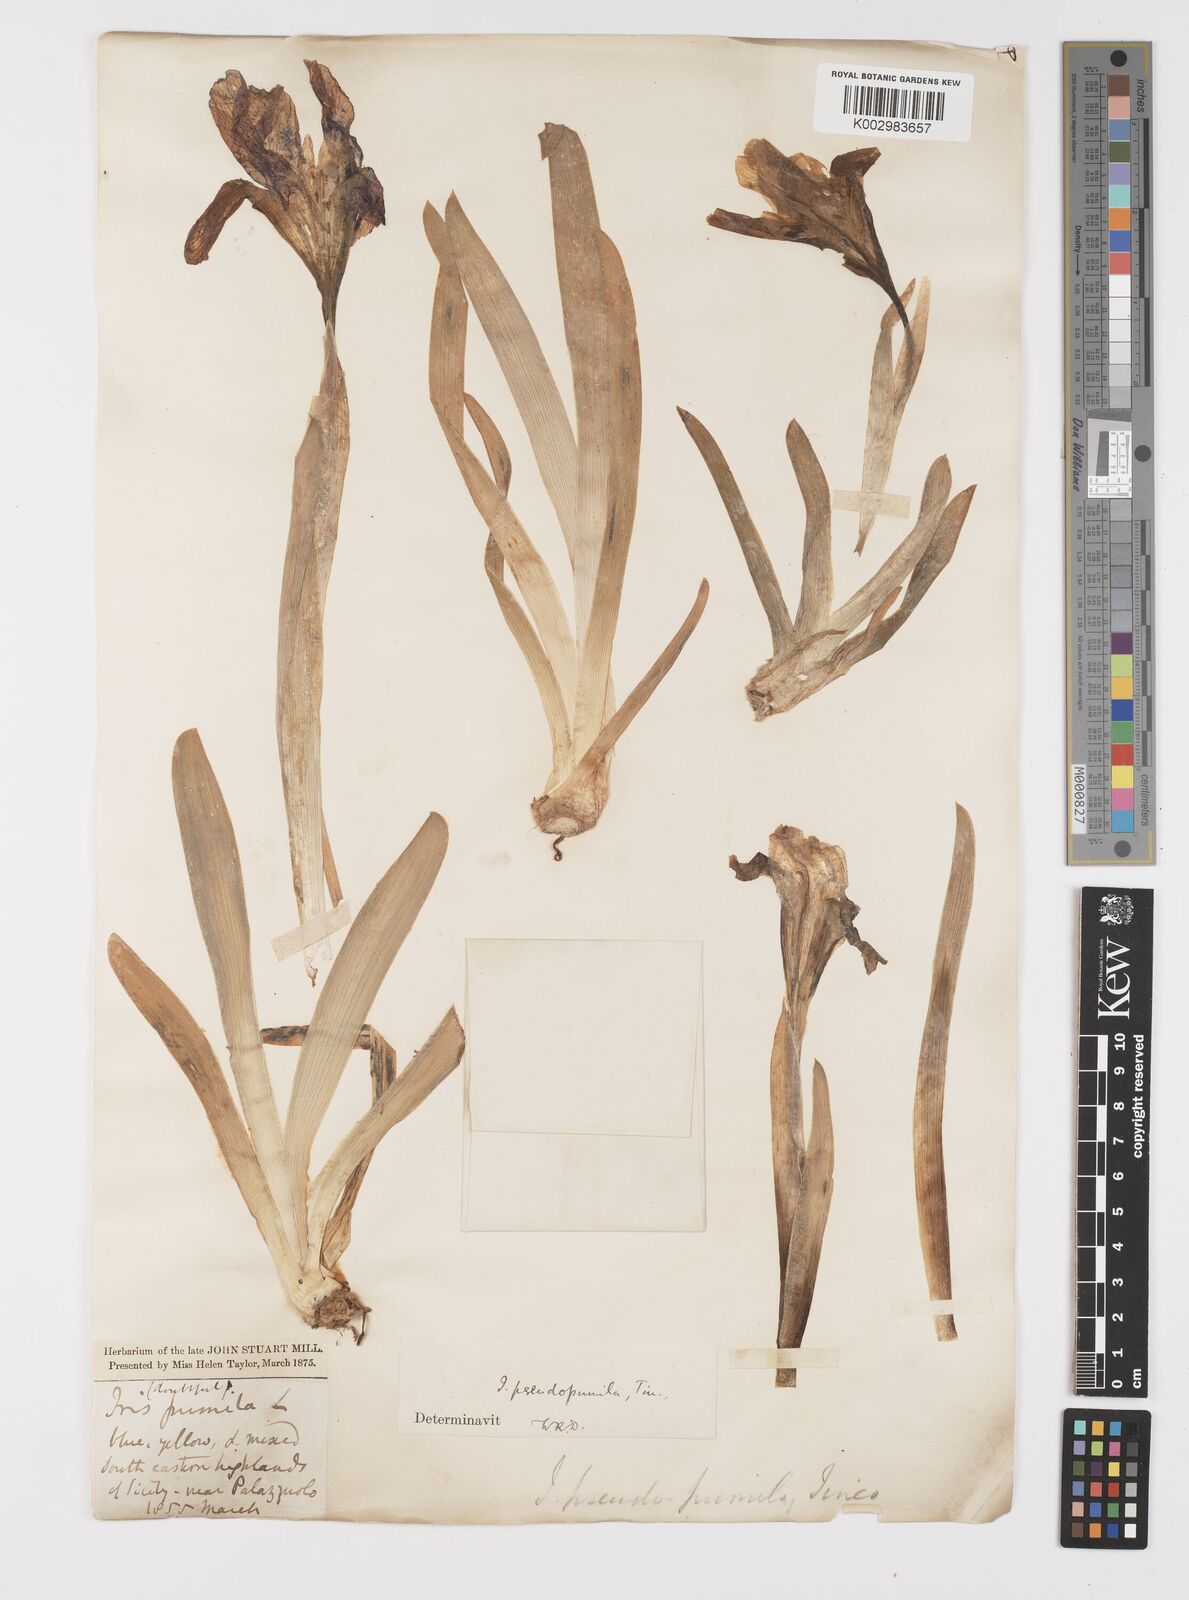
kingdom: Plantae
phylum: Tracheophyta
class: Liliopsida
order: Asparagales
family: Iridaceae
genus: Iris
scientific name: Iris pseudopumila
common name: Southern dwarf iris
